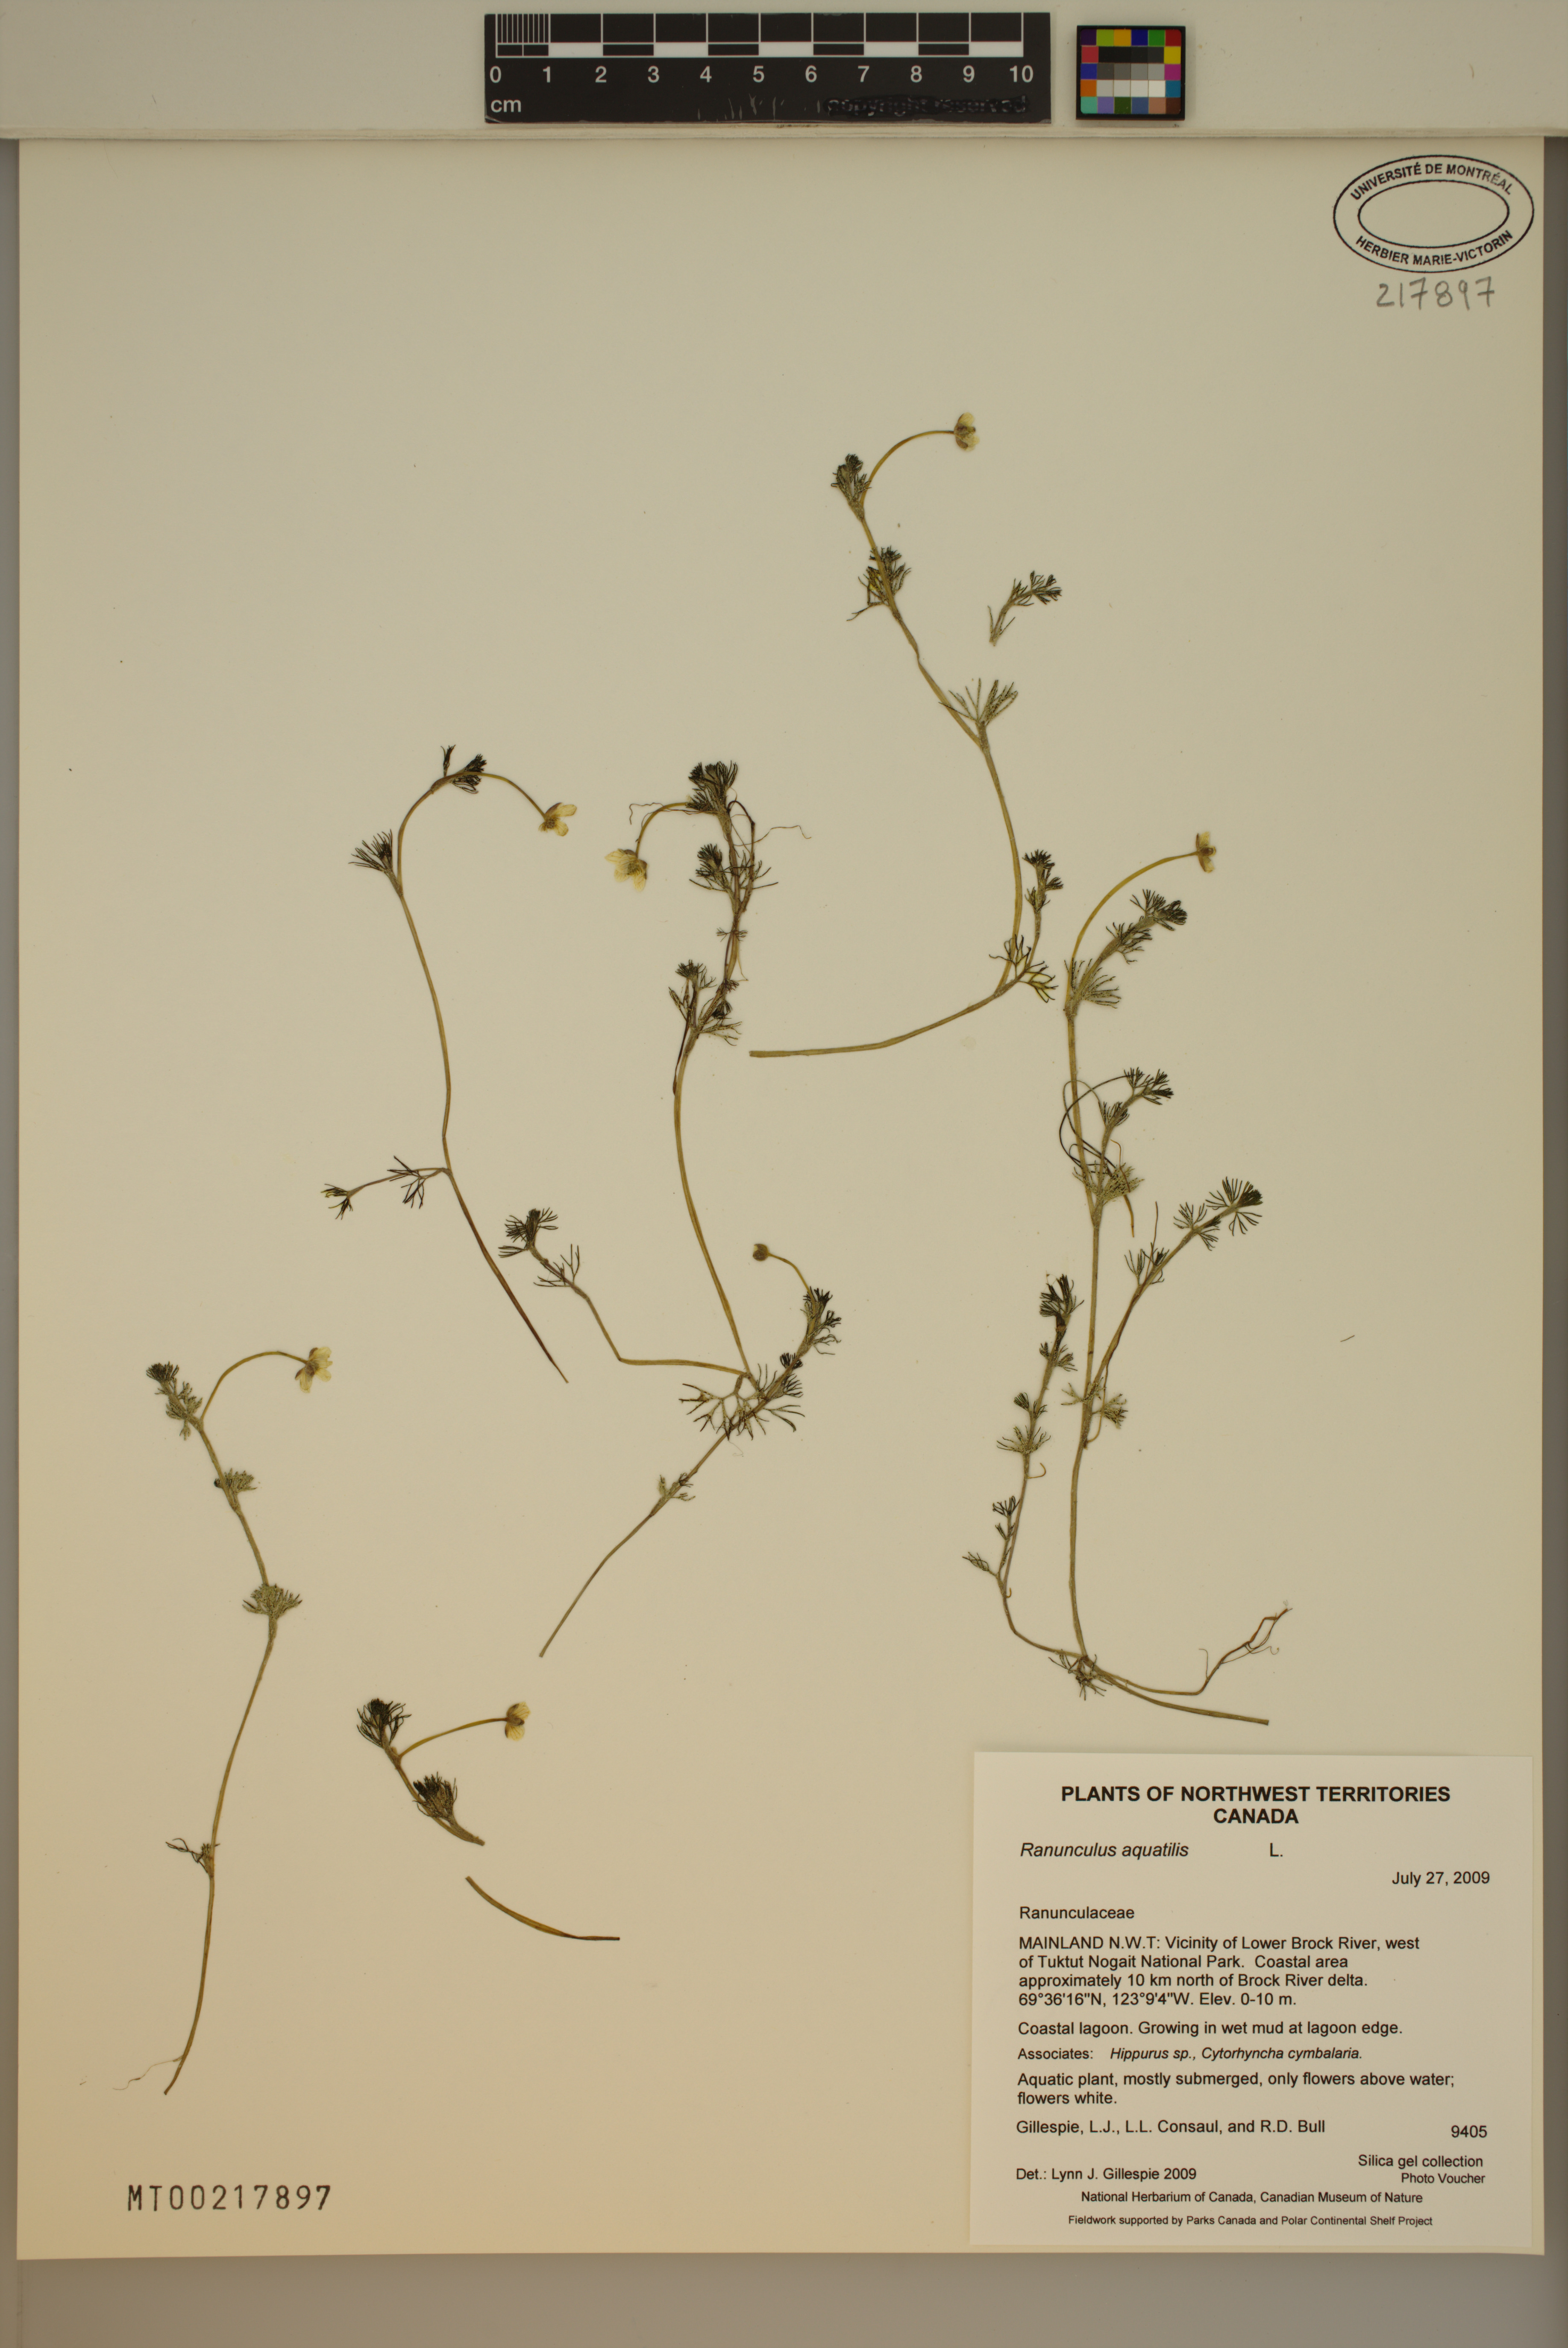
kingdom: Plantae
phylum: Tracheophyta
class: Magnoliopsida
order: Ranunculales
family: Ranunculaceae
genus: Ranunculus
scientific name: Ranunculus aquatilis
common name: Common water-crowfoot
